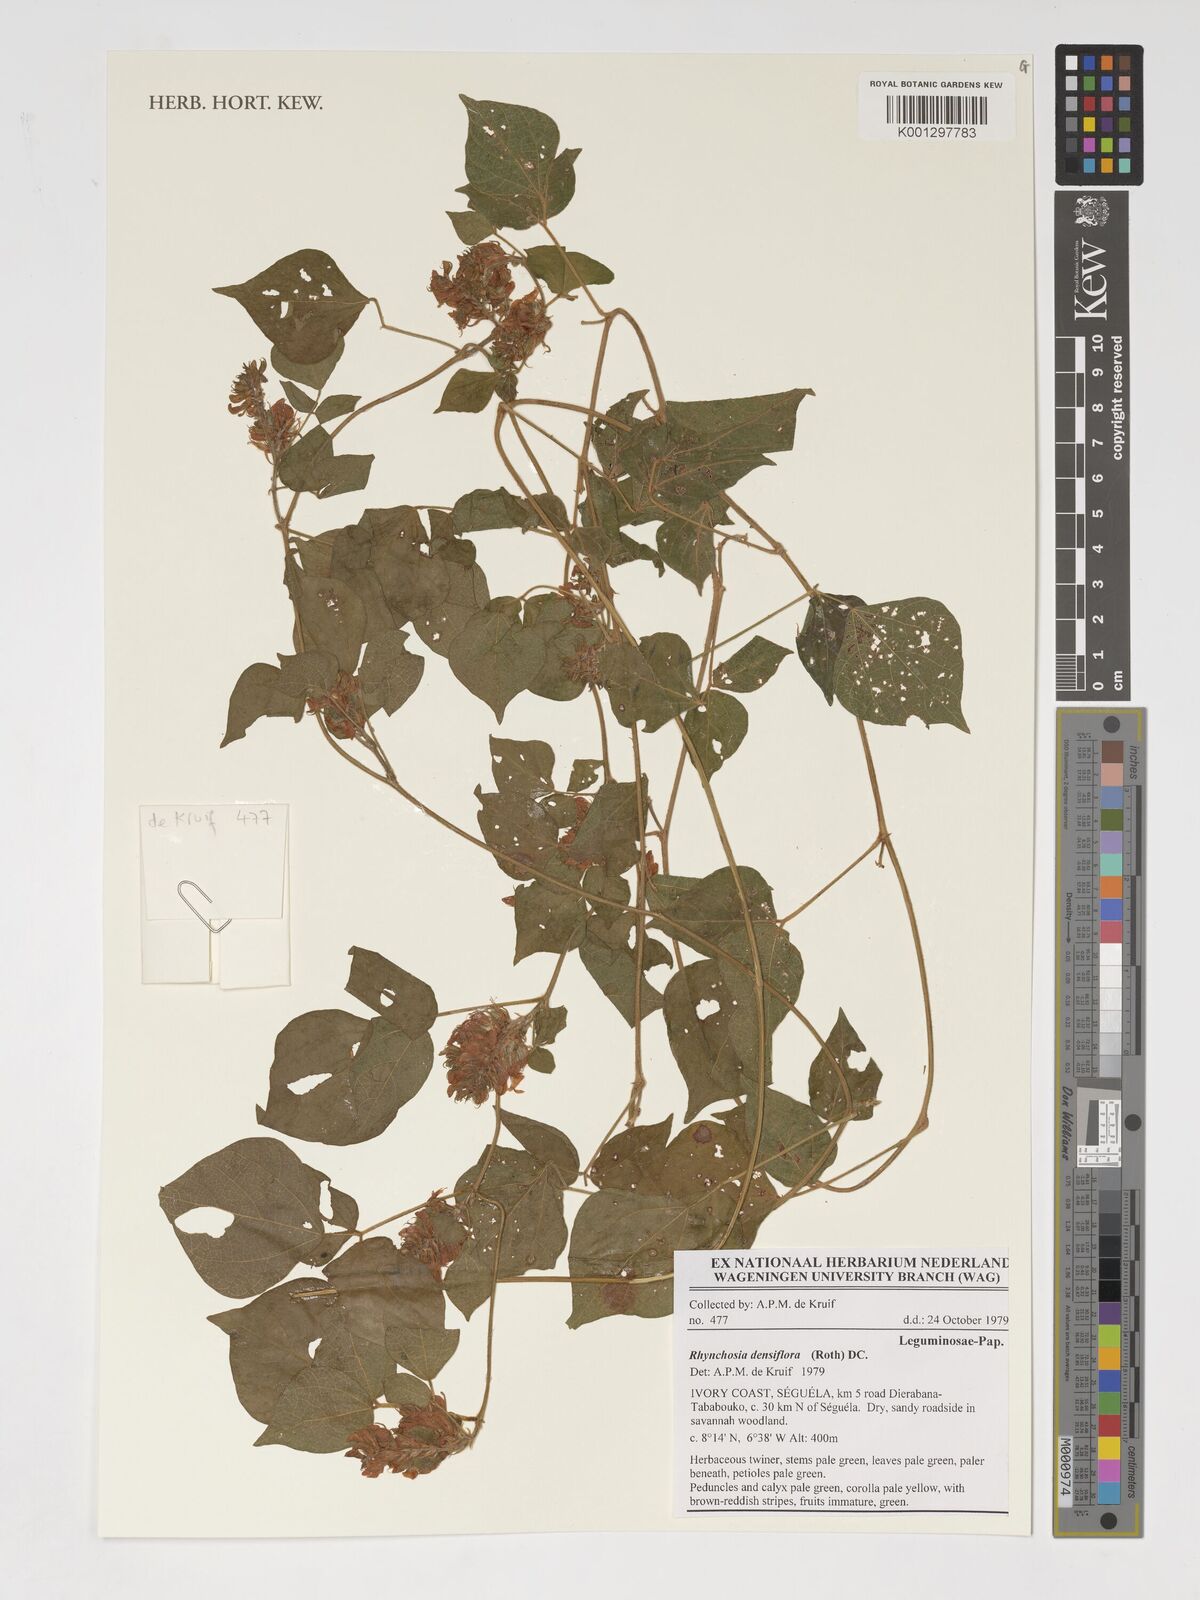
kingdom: Plantae
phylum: Tracheophyta
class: Magnoliopsida
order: Fabales
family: Fabaceae
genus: Rhynchosia
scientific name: Rhynchosia densiflora
